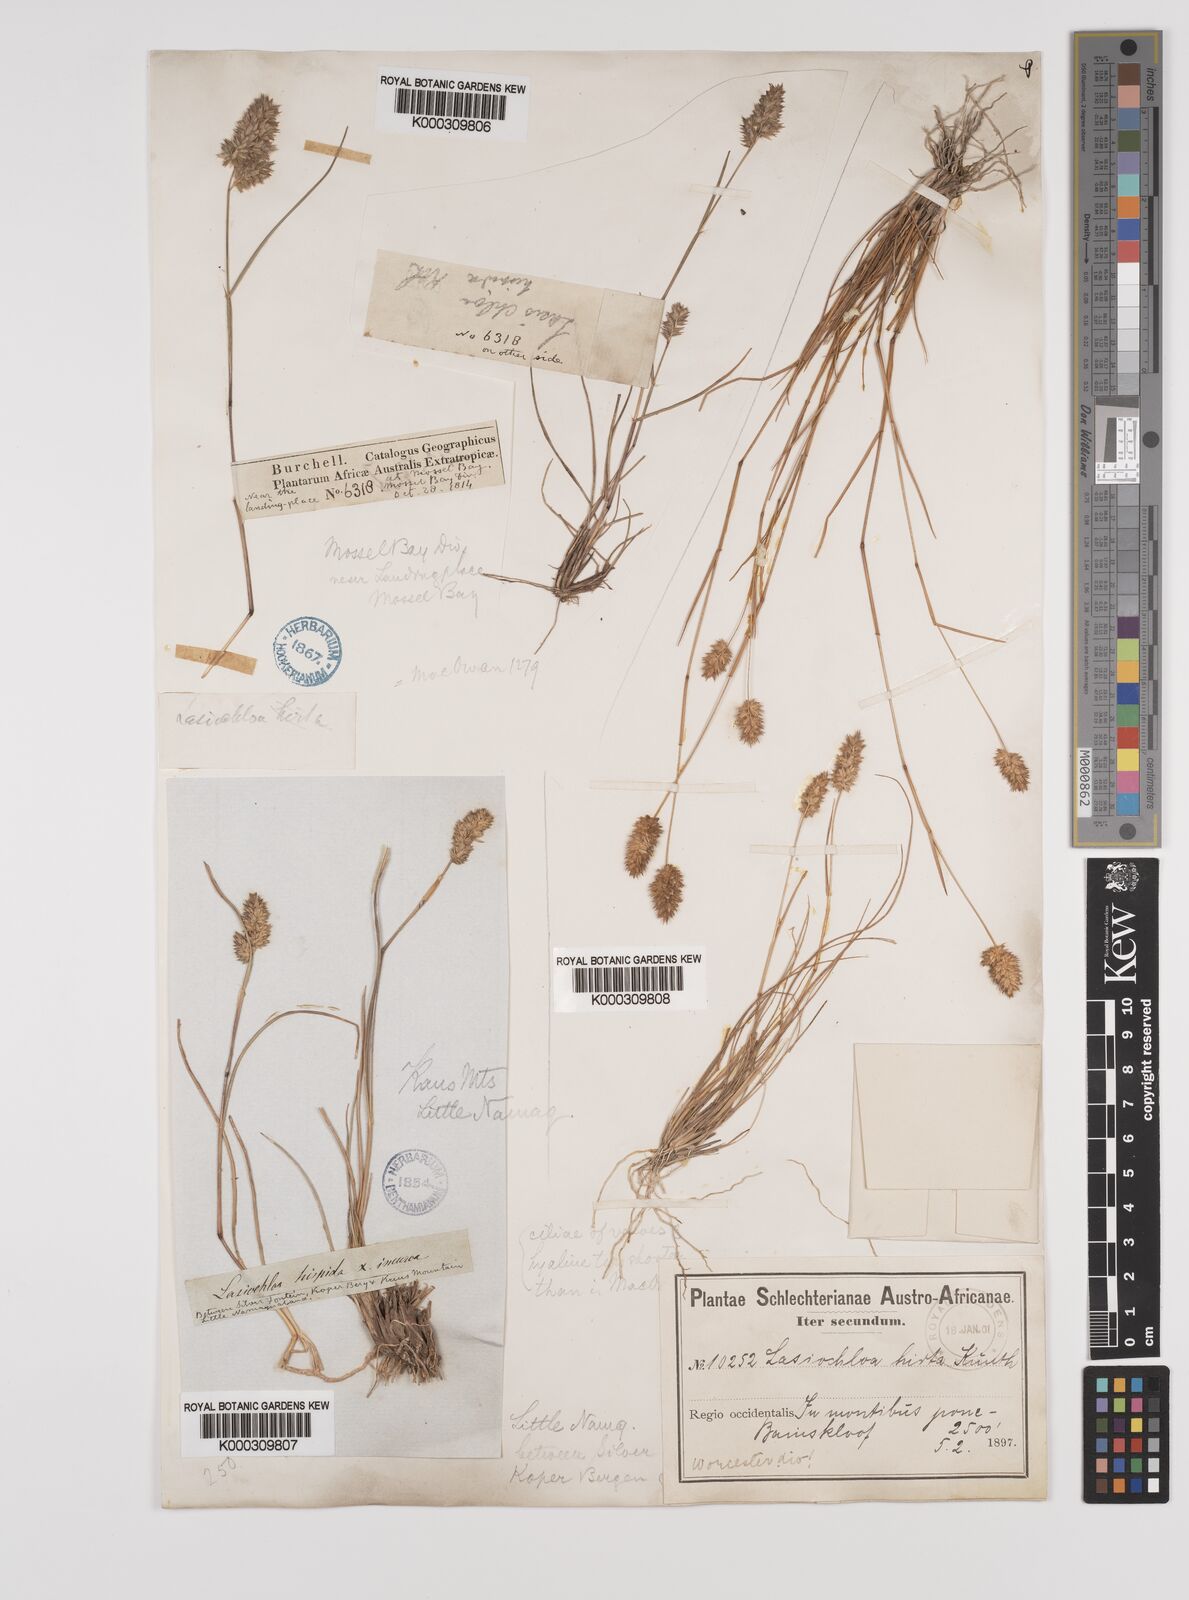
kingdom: Plantae
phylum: Tracheophyta
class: Liliopsida
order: Poales
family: Poaceae
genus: Tribolium
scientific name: Tribolium hispidum
